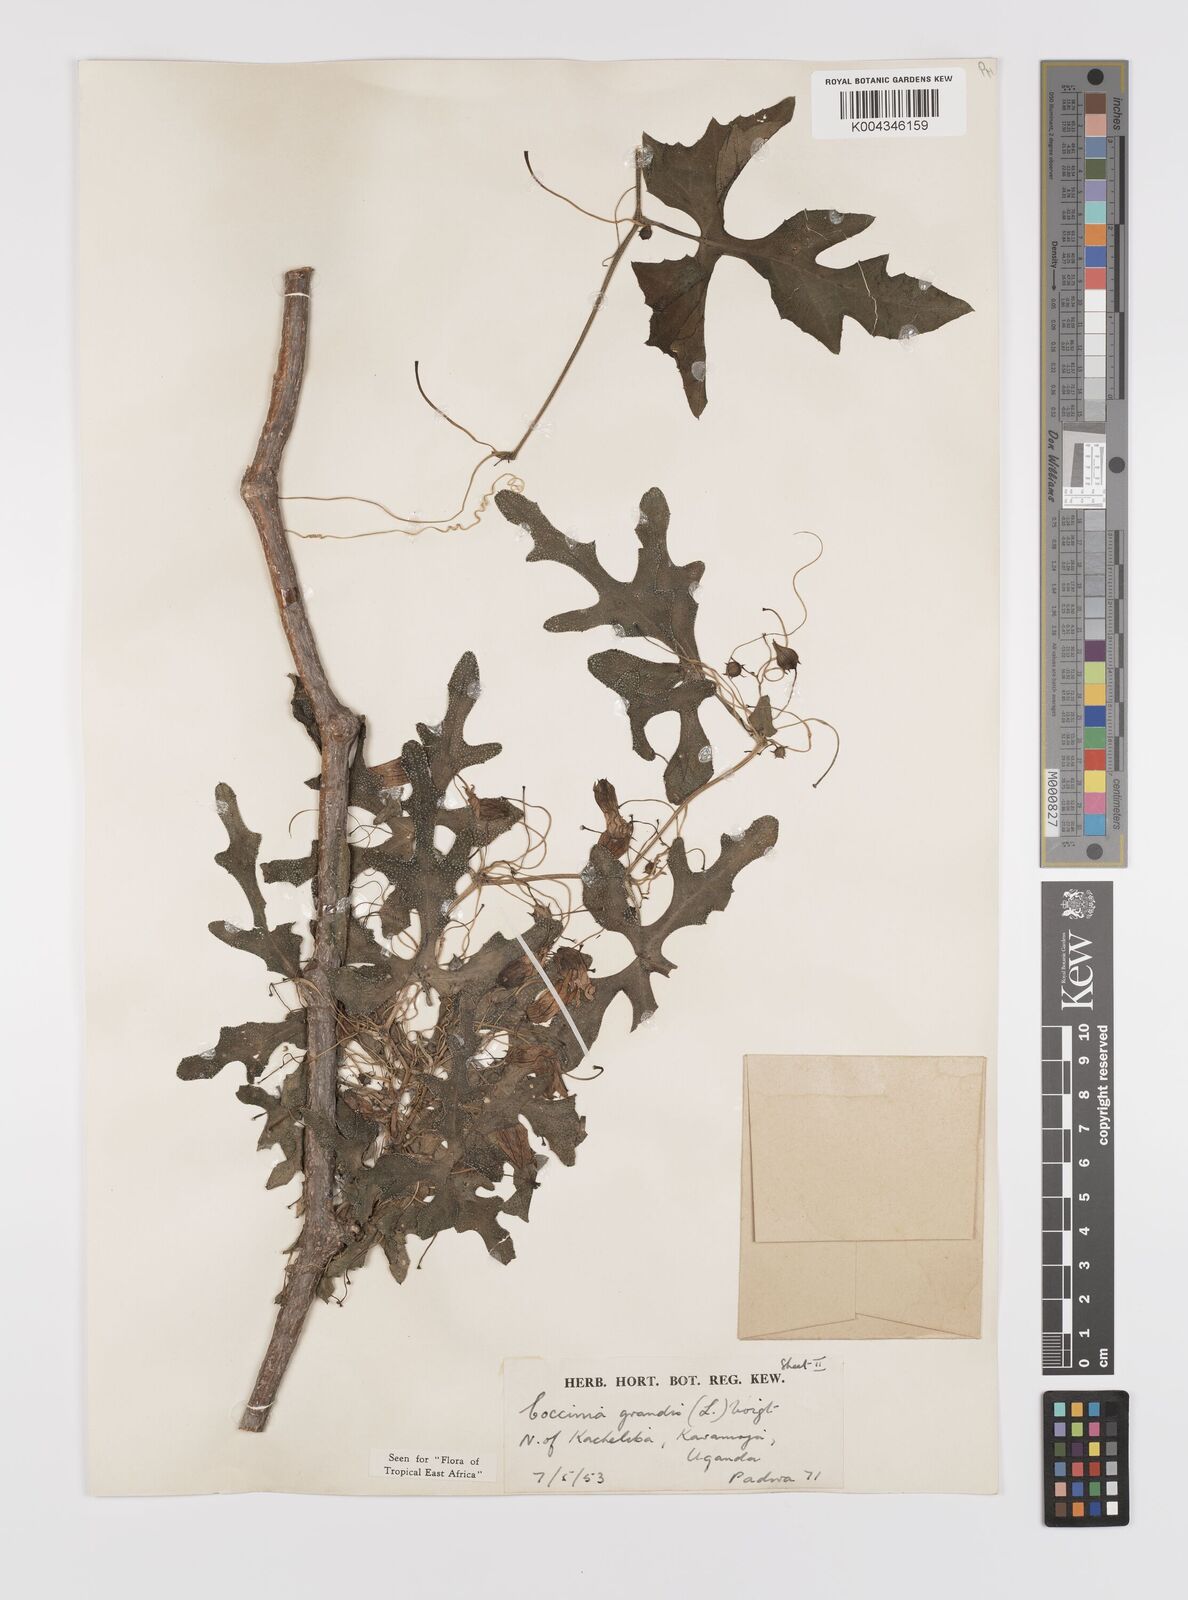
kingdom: Plantae
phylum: Tracheophyta
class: Magnoliopsida
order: Cucurbitales
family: Cucurbitaceae
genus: Coccinia
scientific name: Coccinia grandis
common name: Ivy gourd
